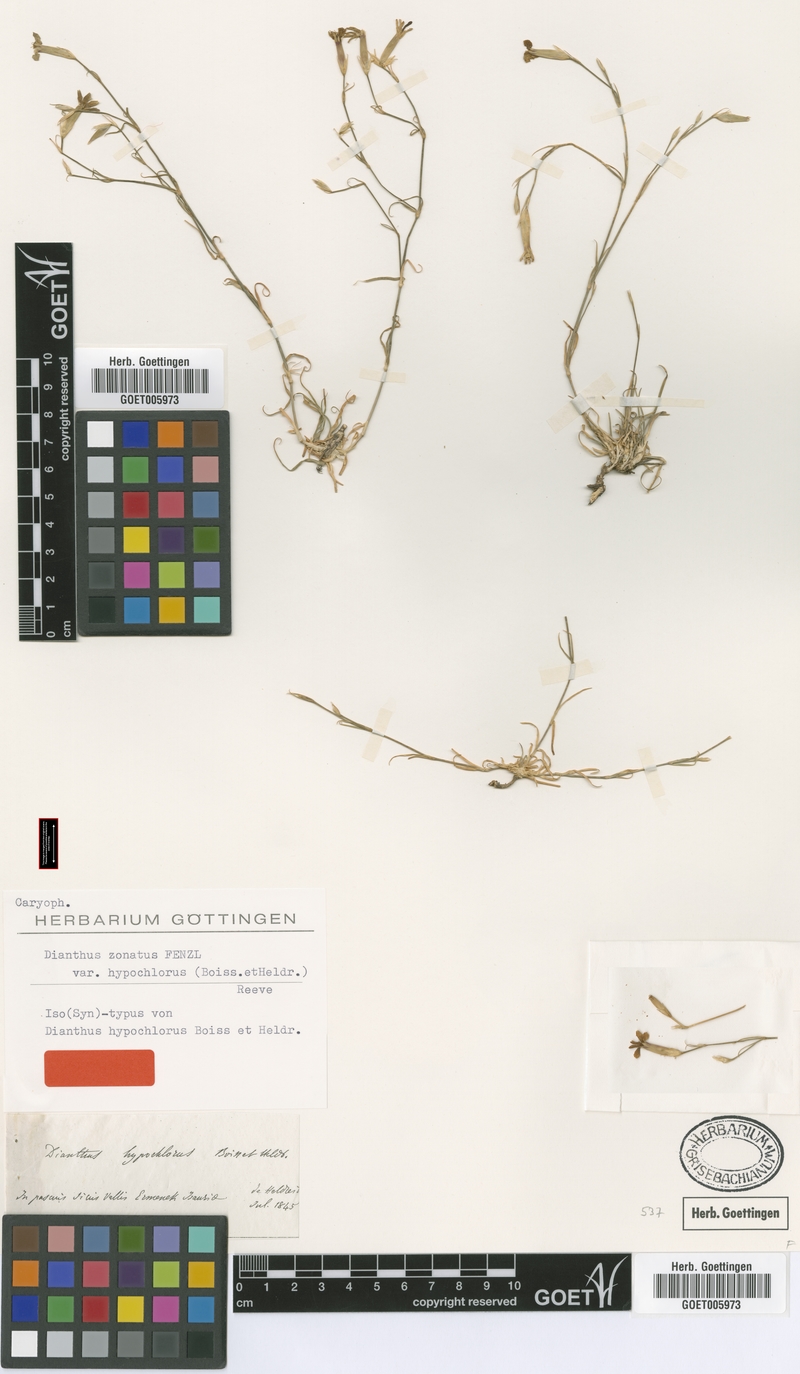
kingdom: Plantae
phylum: Tracheophyta
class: Magnoliopsida
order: Caryophyllales
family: Caryophyllaceae
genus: Dianthus
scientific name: Dianthus zonatus
